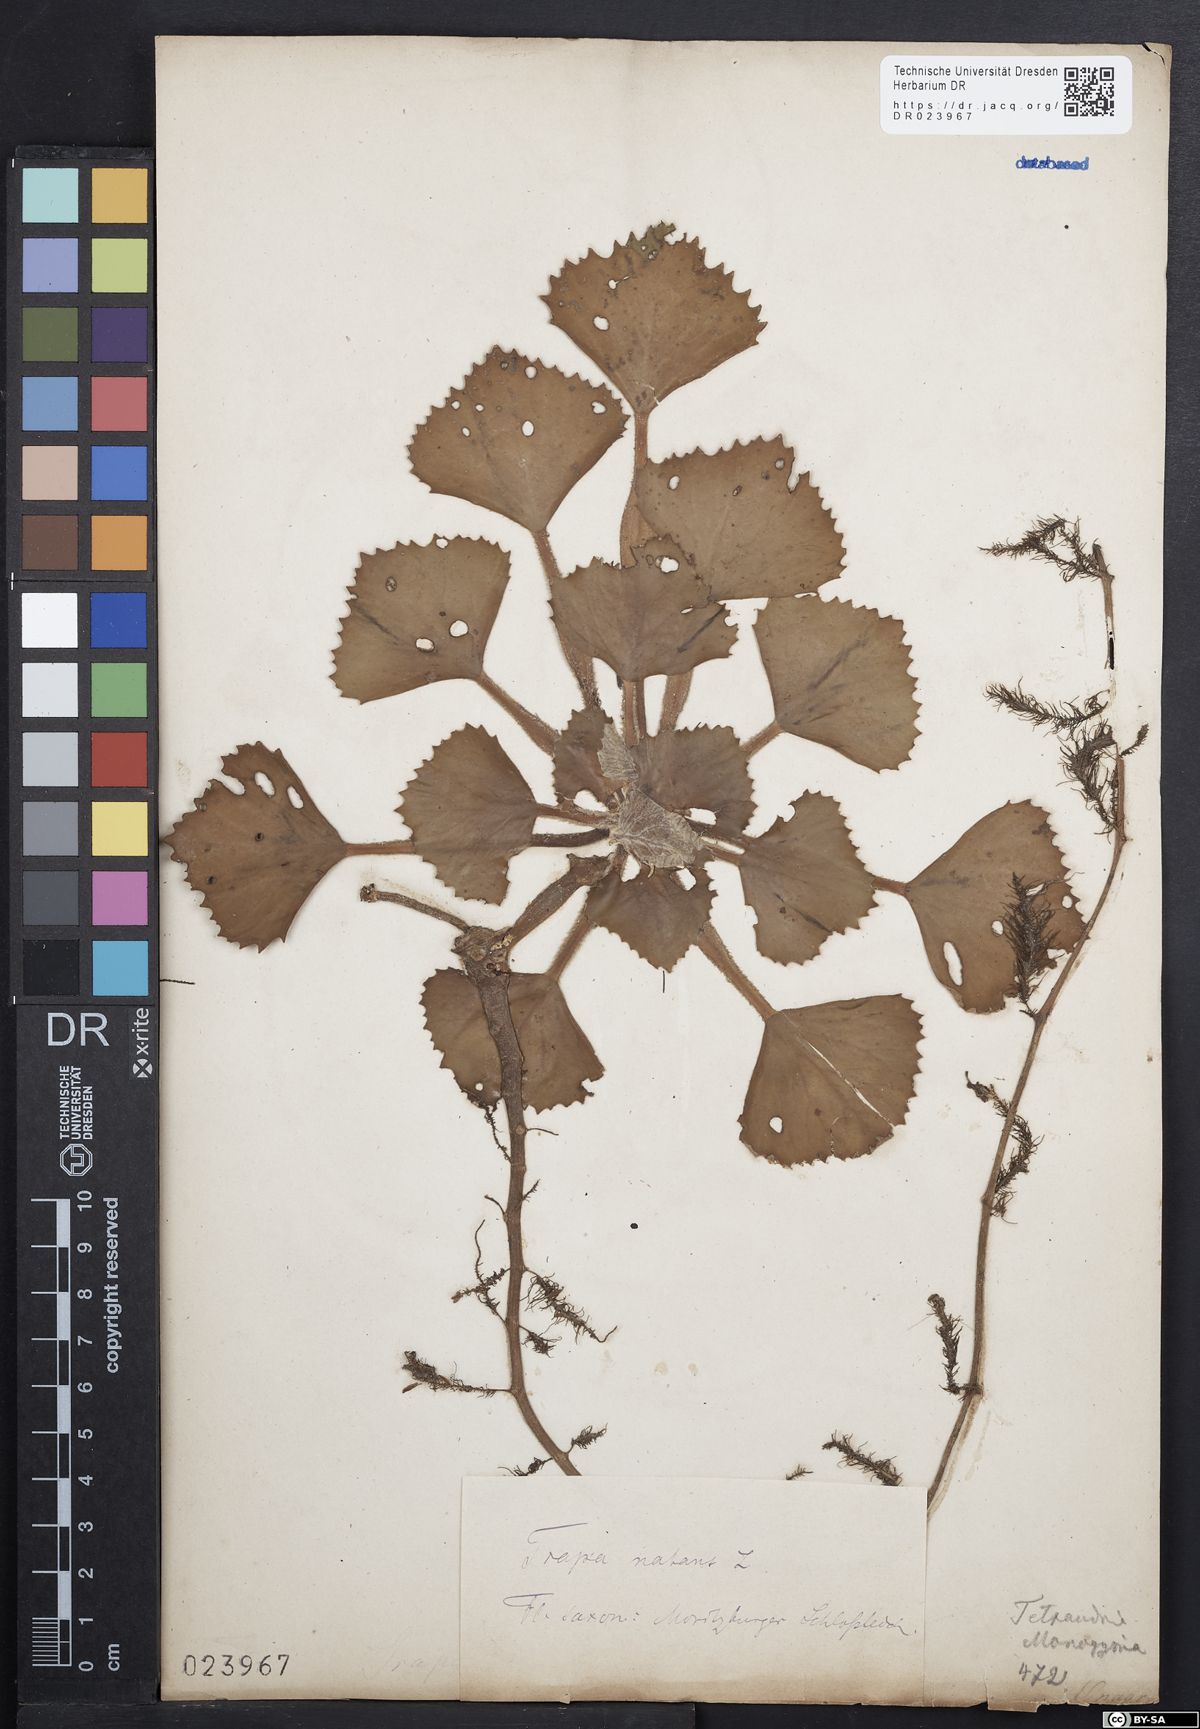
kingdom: Plantae
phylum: Tracheophyta
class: Magnoliopsida
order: Myrtales
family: Lythraceae
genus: Trapa
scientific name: Trapa natans
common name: Water chestnut
